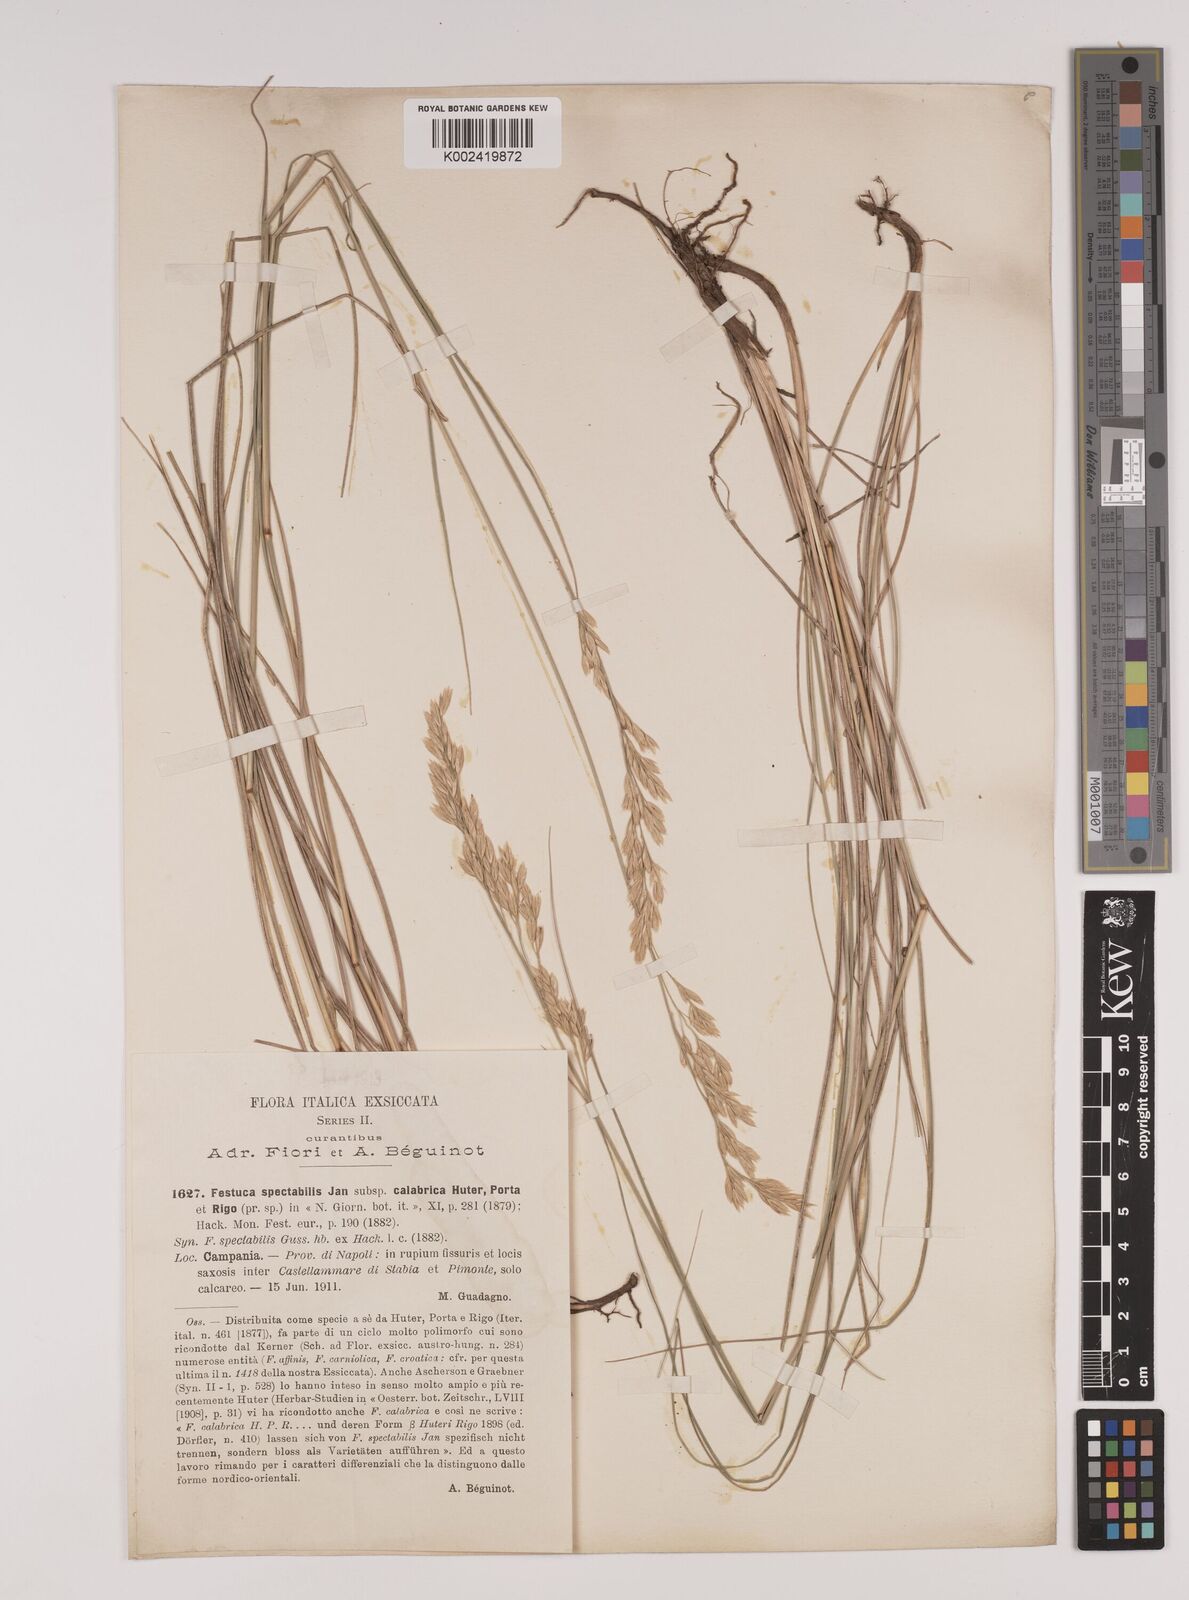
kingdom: Plantae
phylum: Tracheophyta
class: Liliopsida
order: Poales
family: Poaceae
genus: Festuca
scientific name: Festuca calabrica
